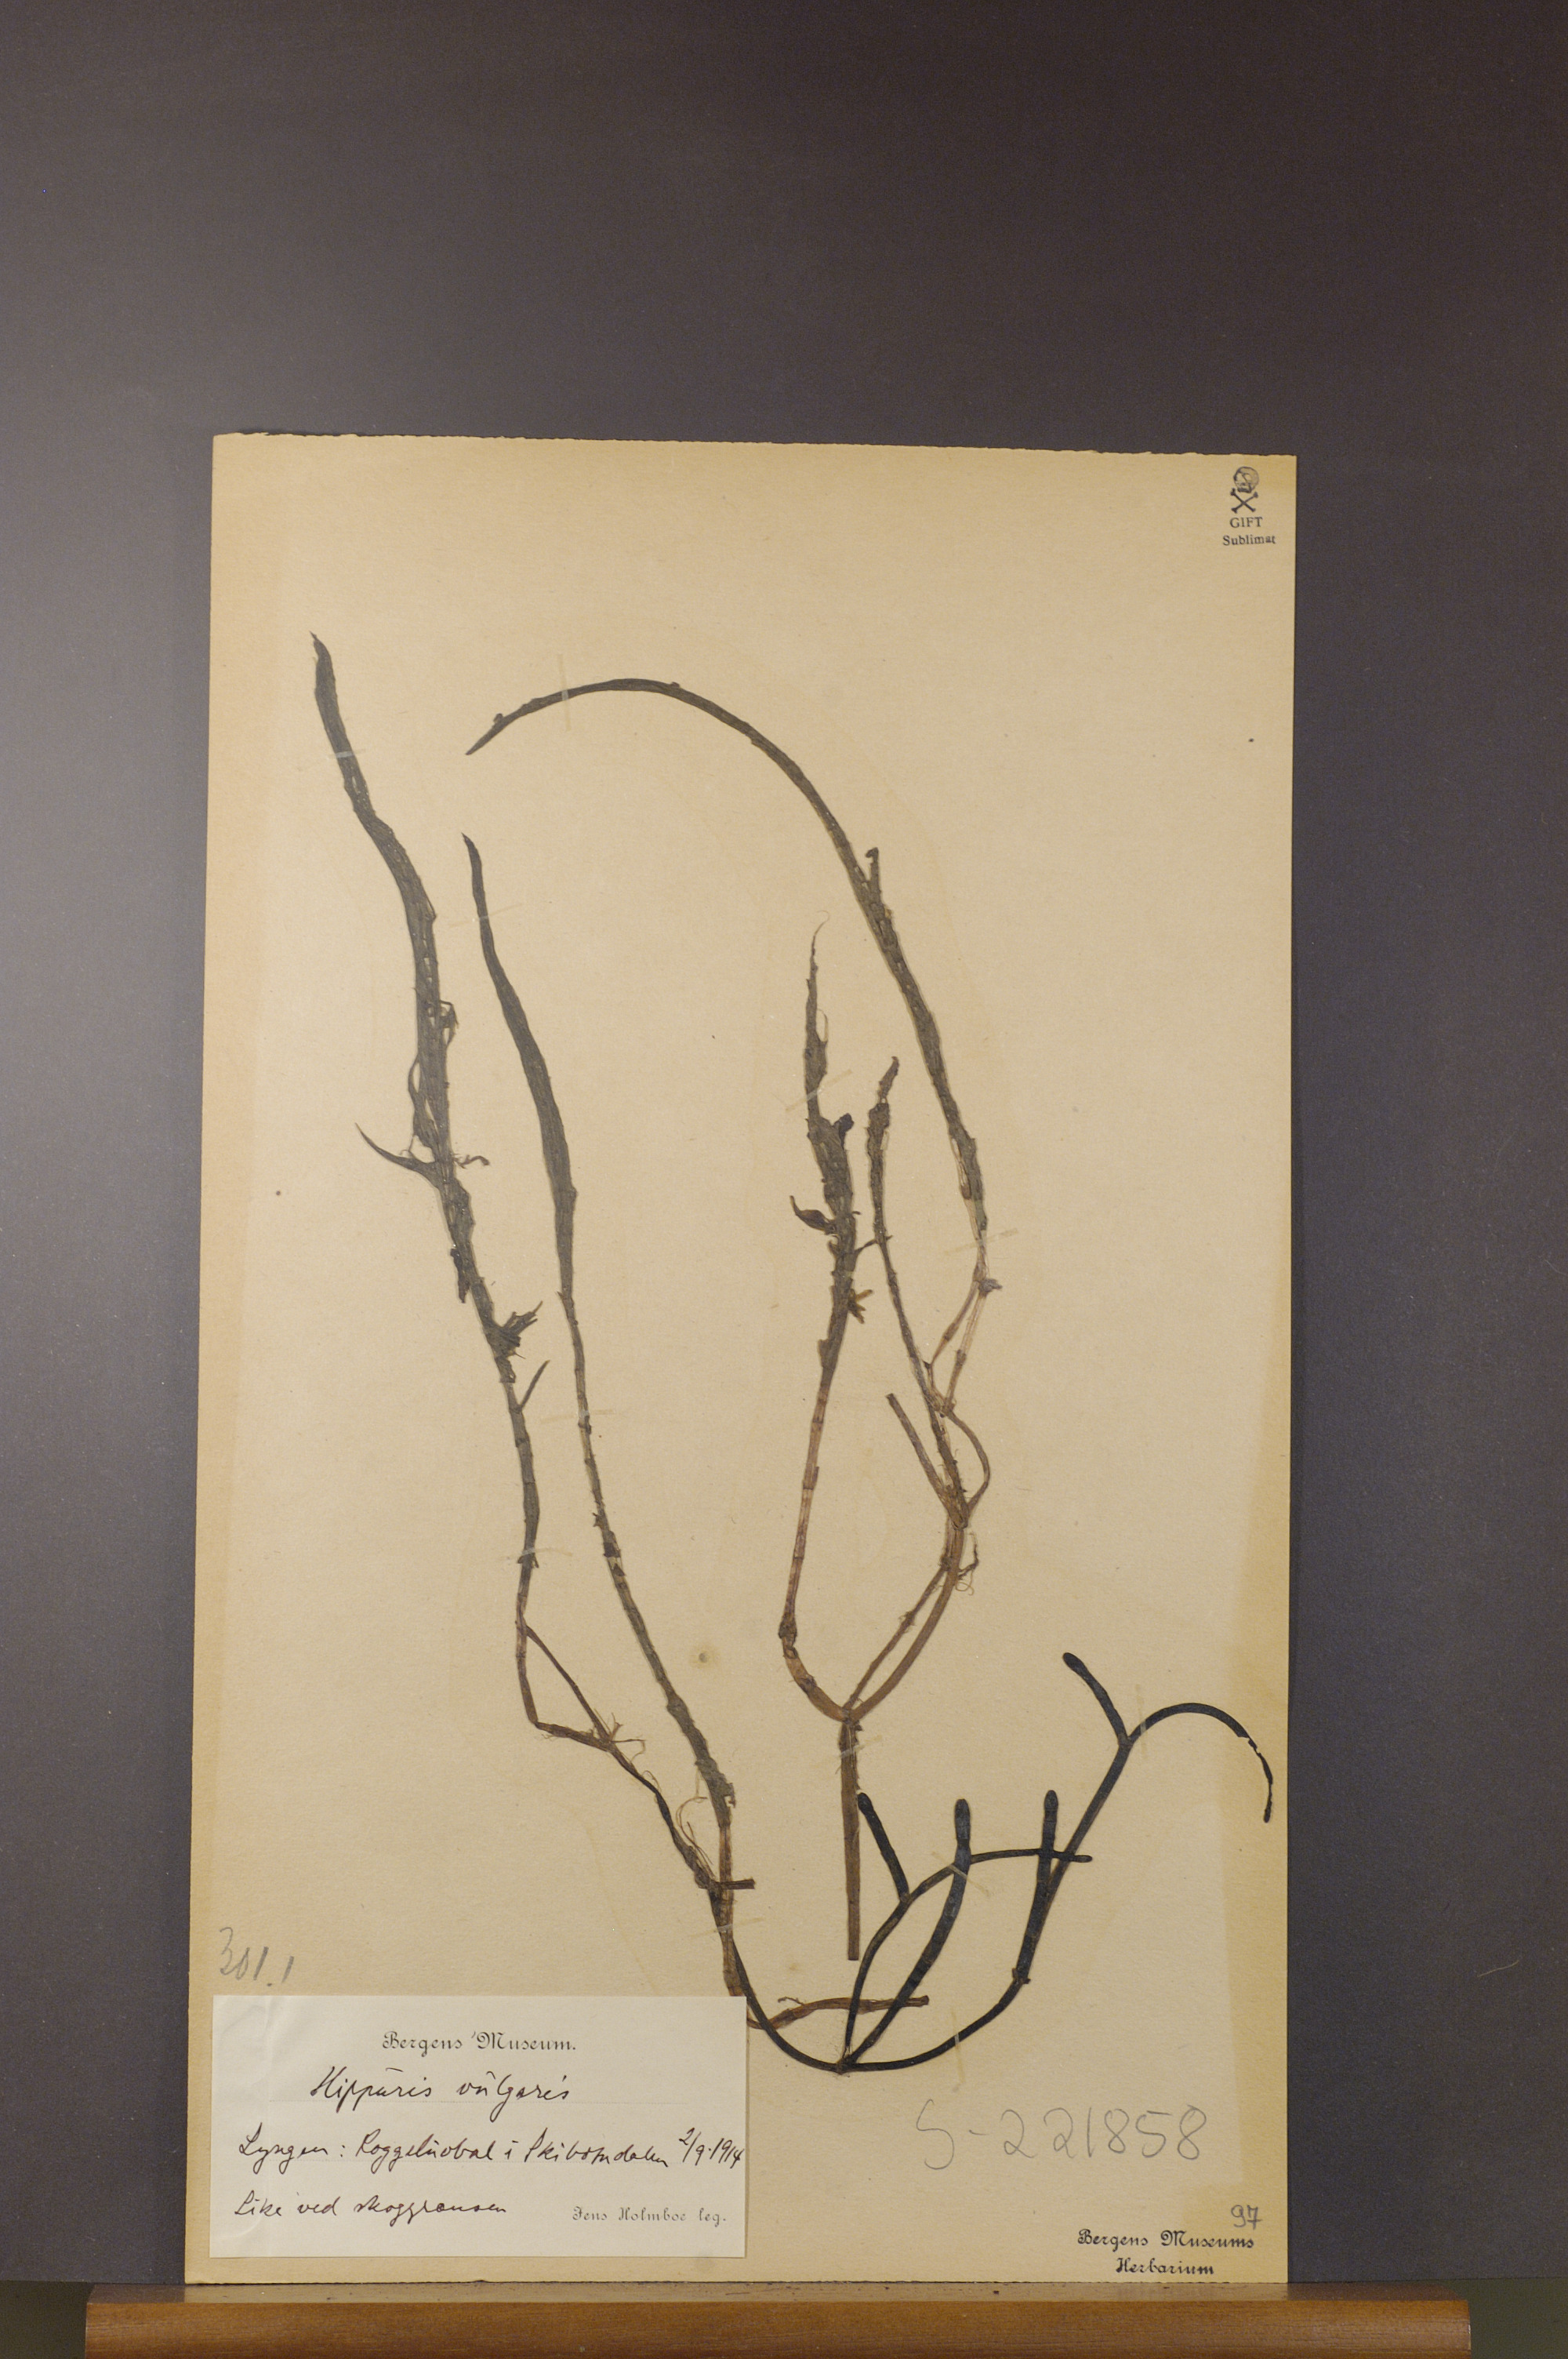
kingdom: Plantae
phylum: Tracheophyta
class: Magnoliopsida
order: Lamiales
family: Plantaginaceae
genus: Hippuris
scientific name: Hippuris vulgaris
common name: Mare's-tail
